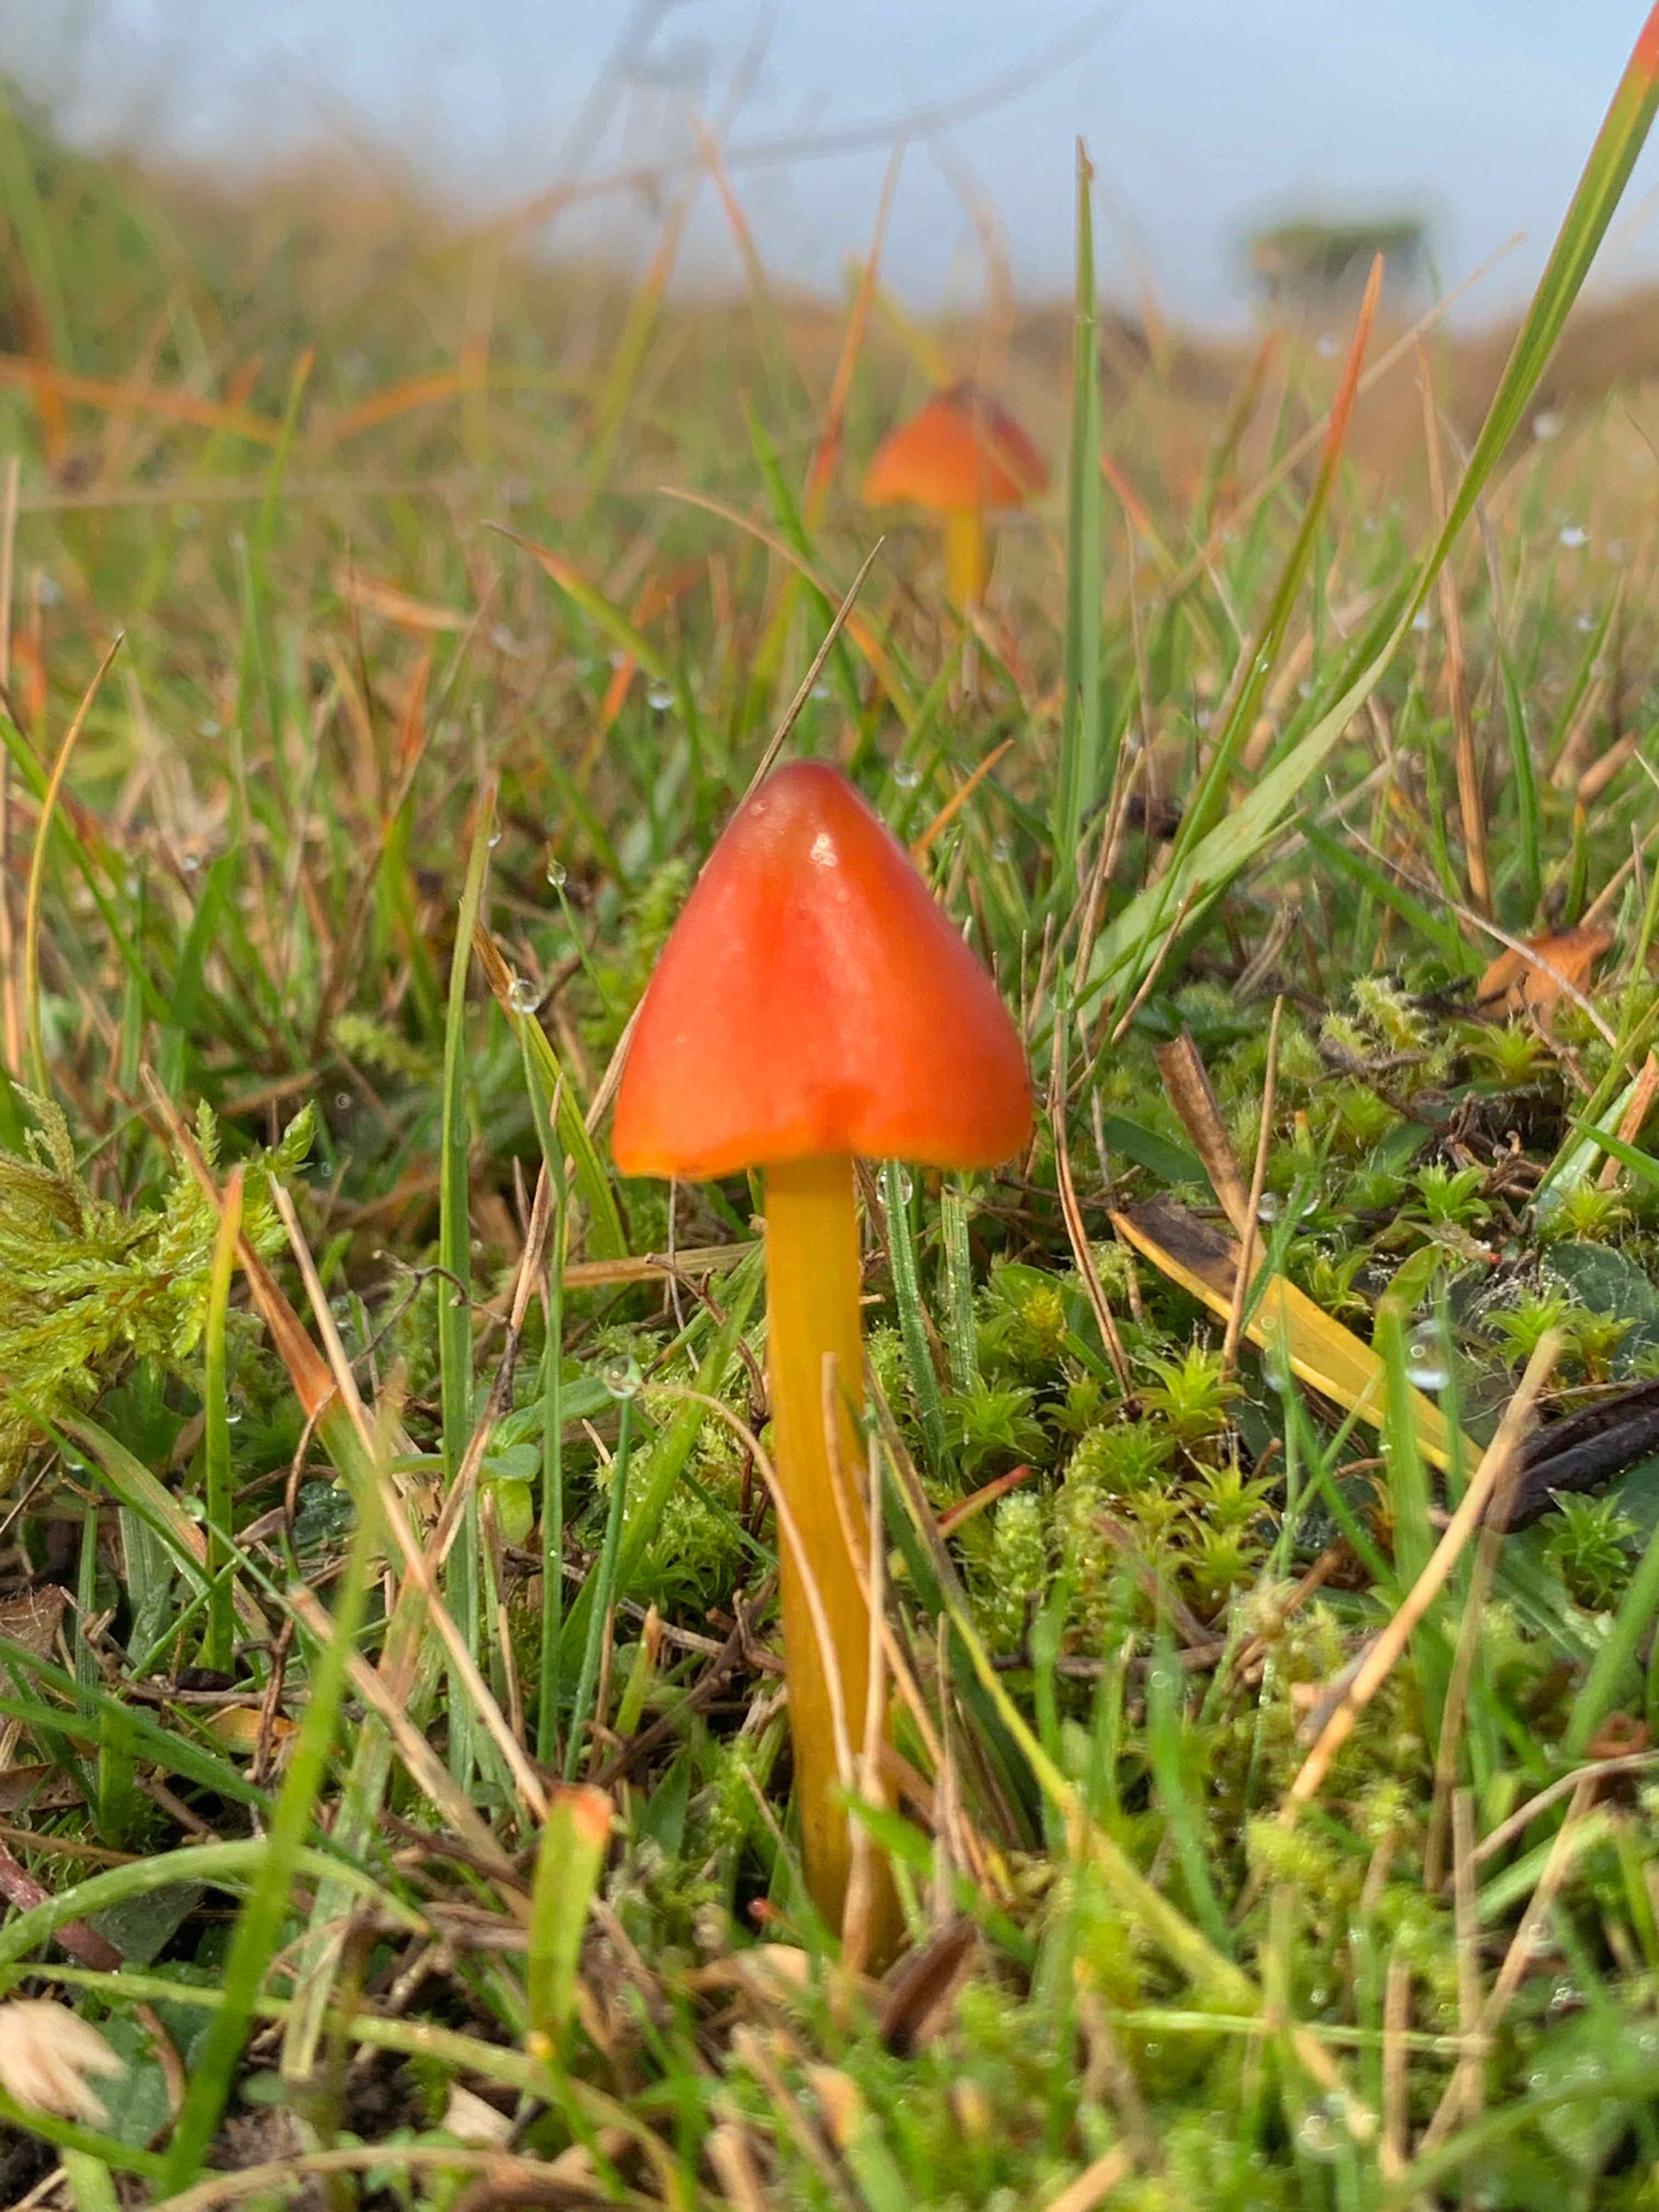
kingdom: Fungi
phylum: Basidiomycota
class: Agaricomycetes
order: Agaricales
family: Hygrophoraceae
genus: Hygrocybe
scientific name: Hygrocybe conica
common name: kegle-vokshat
